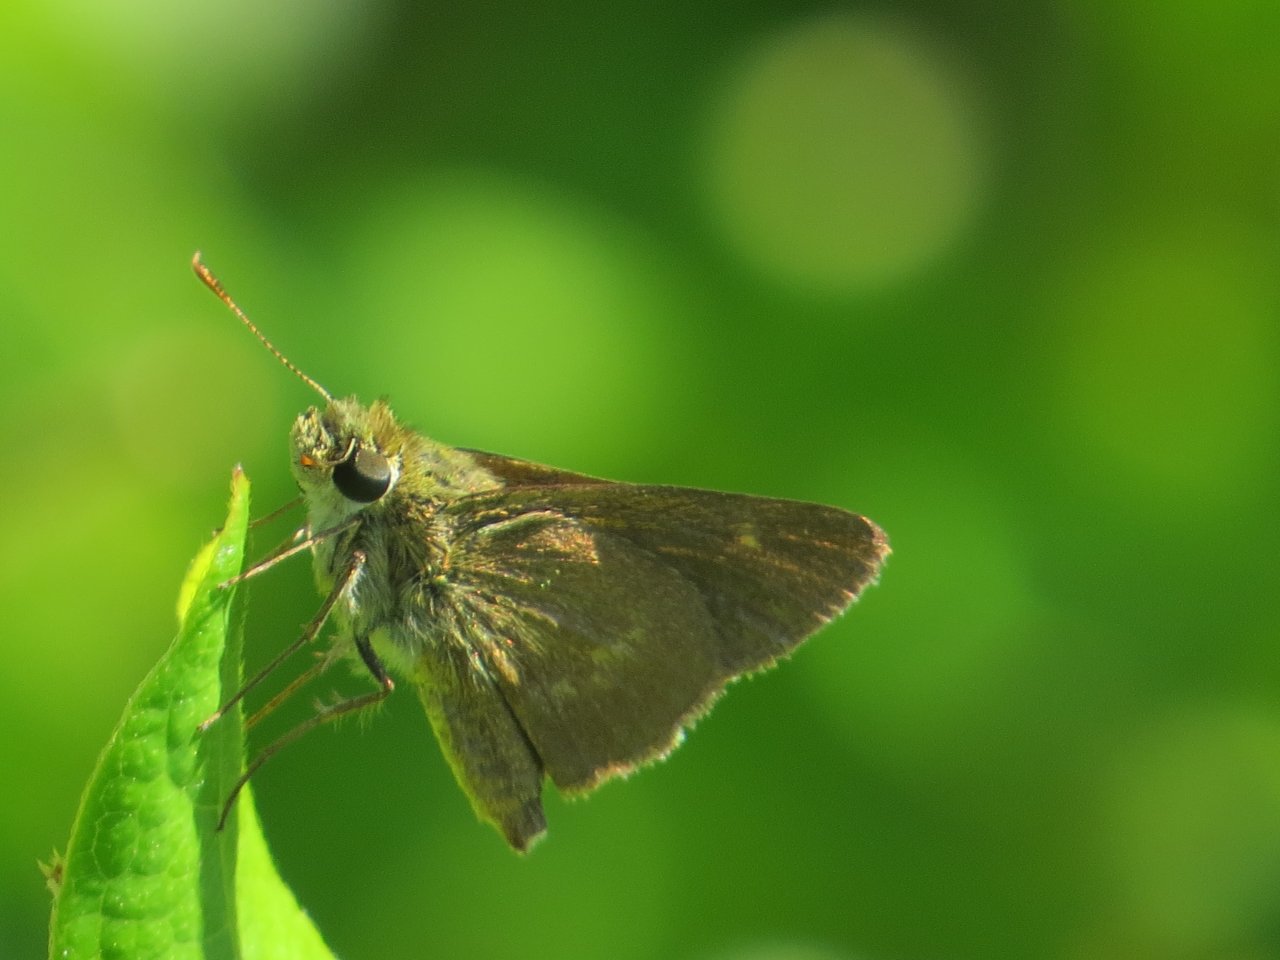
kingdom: Animalia
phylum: Arthropoda
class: Insecta
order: Lepidoptera
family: Hesperiidae
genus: Polites
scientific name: Polites egeremet
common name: Northern Broken-Dash
